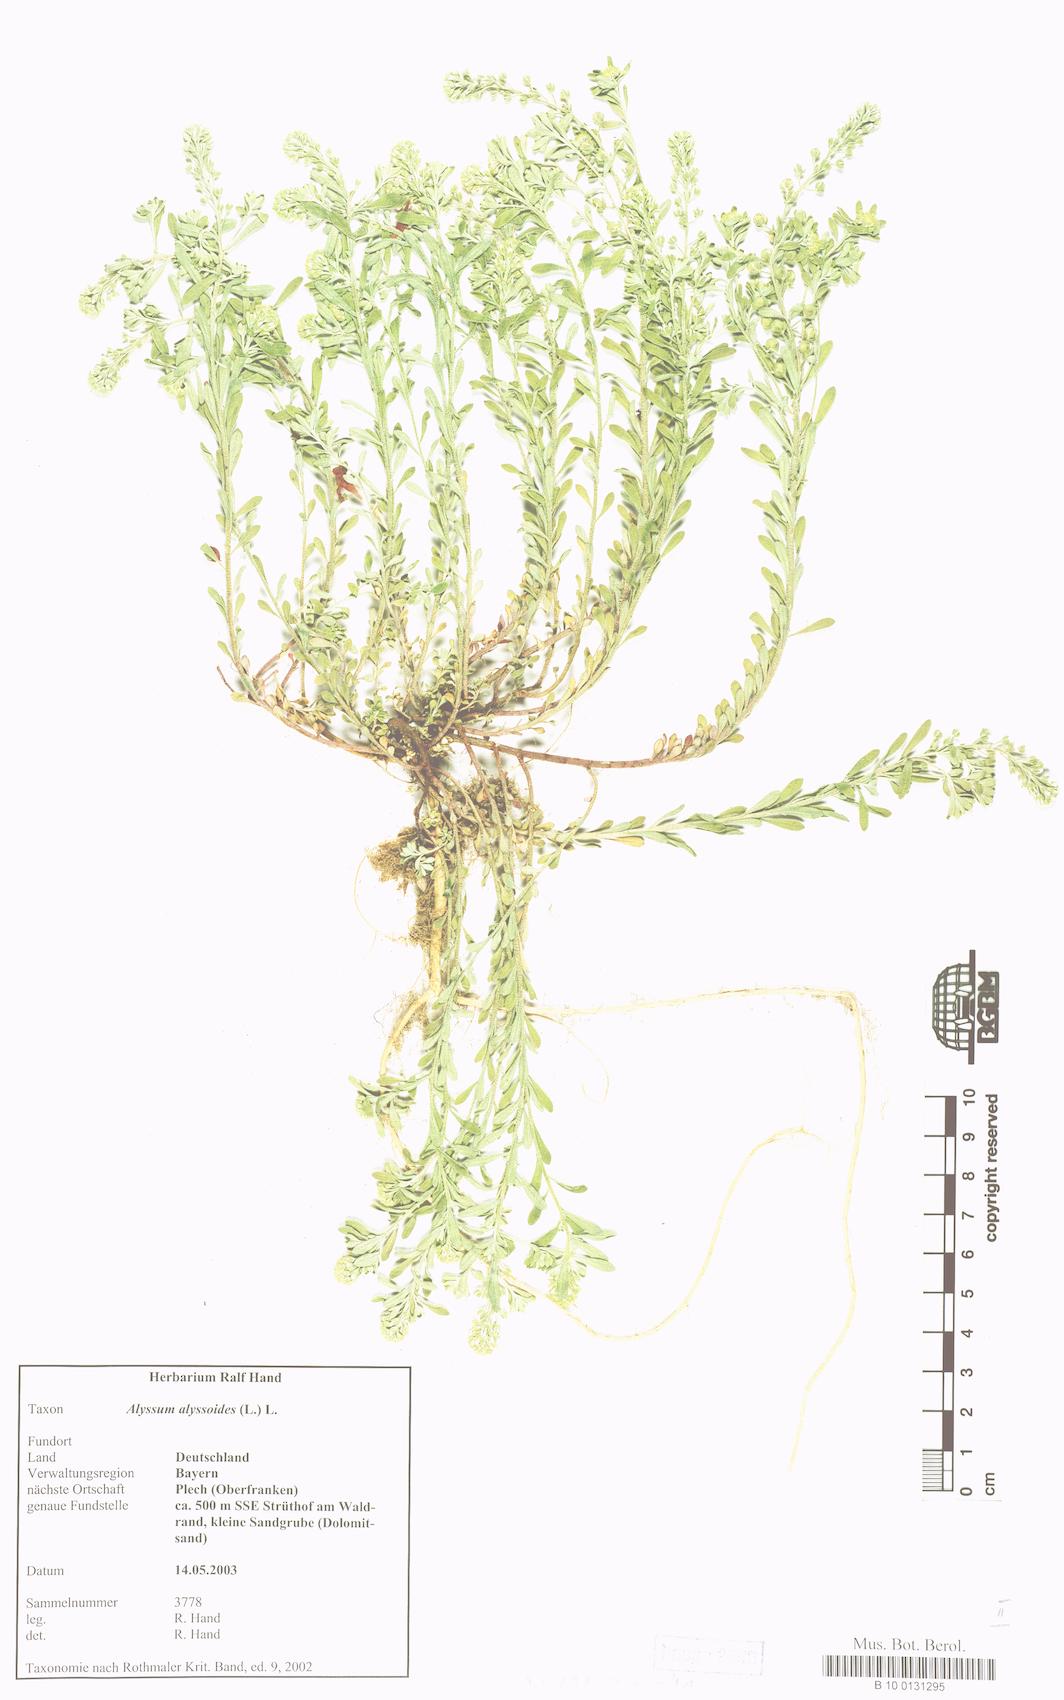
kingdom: Plantae
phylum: Tracheophyta
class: Magnoliopsida
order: Brassicales
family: Brassicaceae
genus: Alyssum
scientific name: Alyssum alyssoides
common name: Small alison
